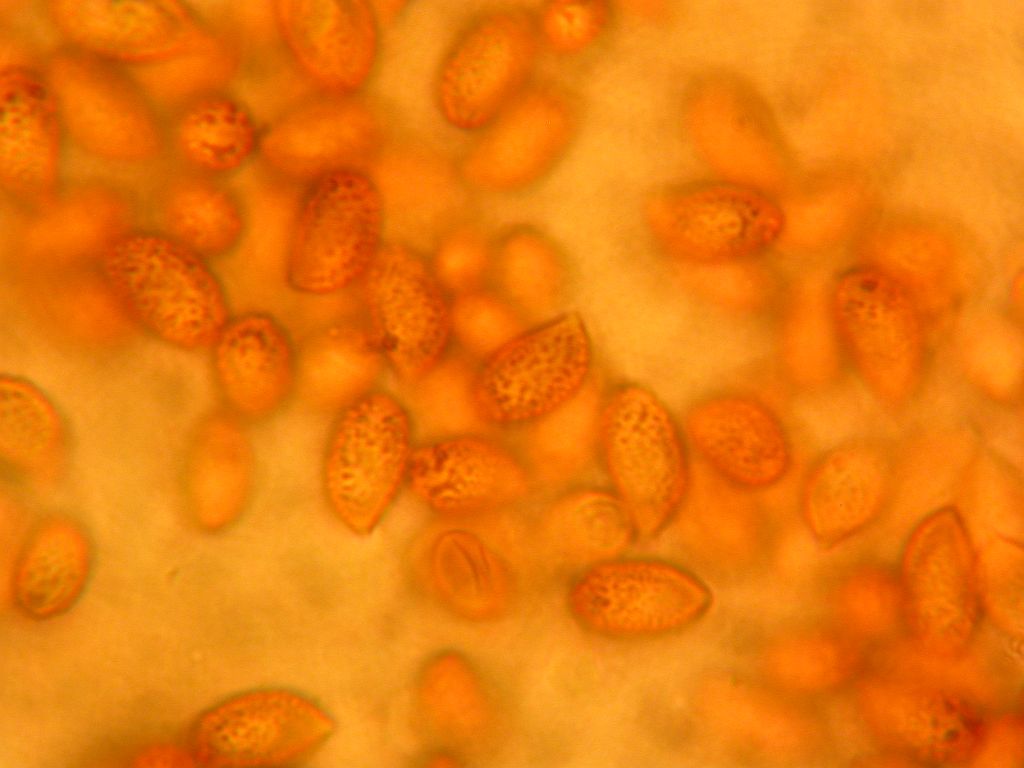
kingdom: Fungi
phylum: Basidiomycota
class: Agaricomycetes
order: Agaricales
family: Cortinariaceae
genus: Cortinarius
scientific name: Cortinarius iners
